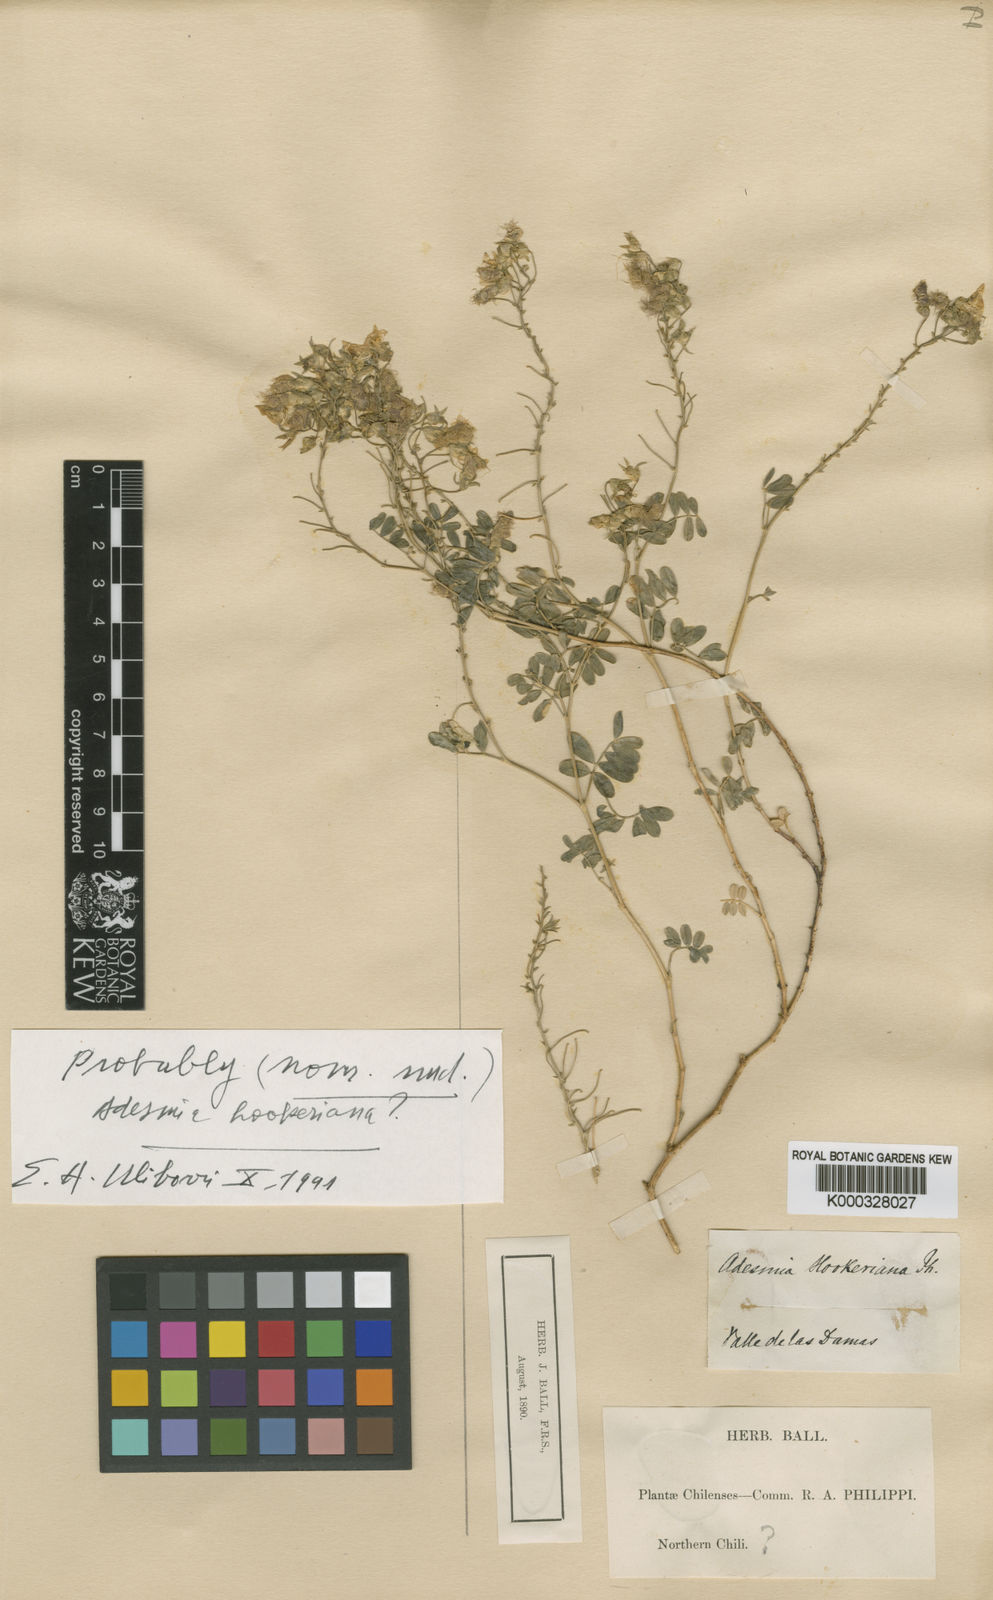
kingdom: Plantae
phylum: Tracheophyta
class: Magnoliopsida
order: Fabales
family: Fabaceae
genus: Adesmia
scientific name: Adesmia trijuga
